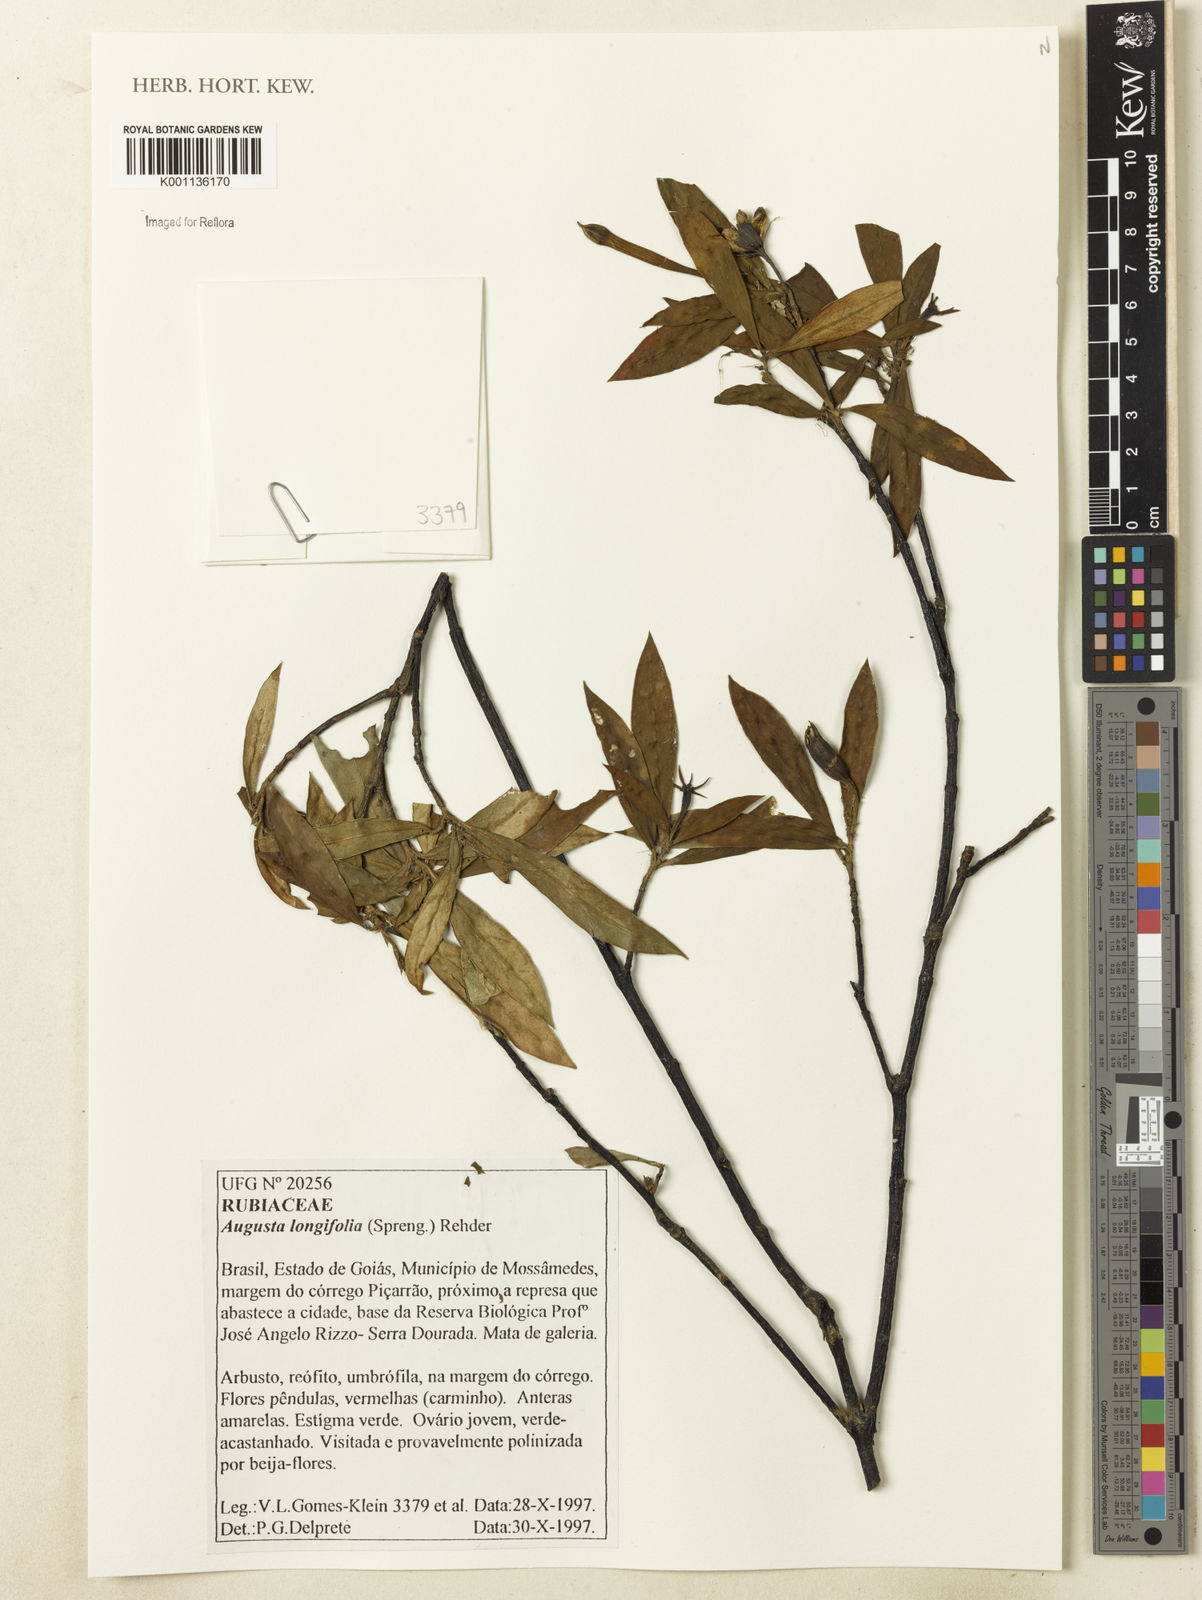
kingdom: Plantae
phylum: Tracheophyta
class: Magnoliopsida
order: Gentianales
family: Rubiaceae
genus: Augusta
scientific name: Augusta longifolia
